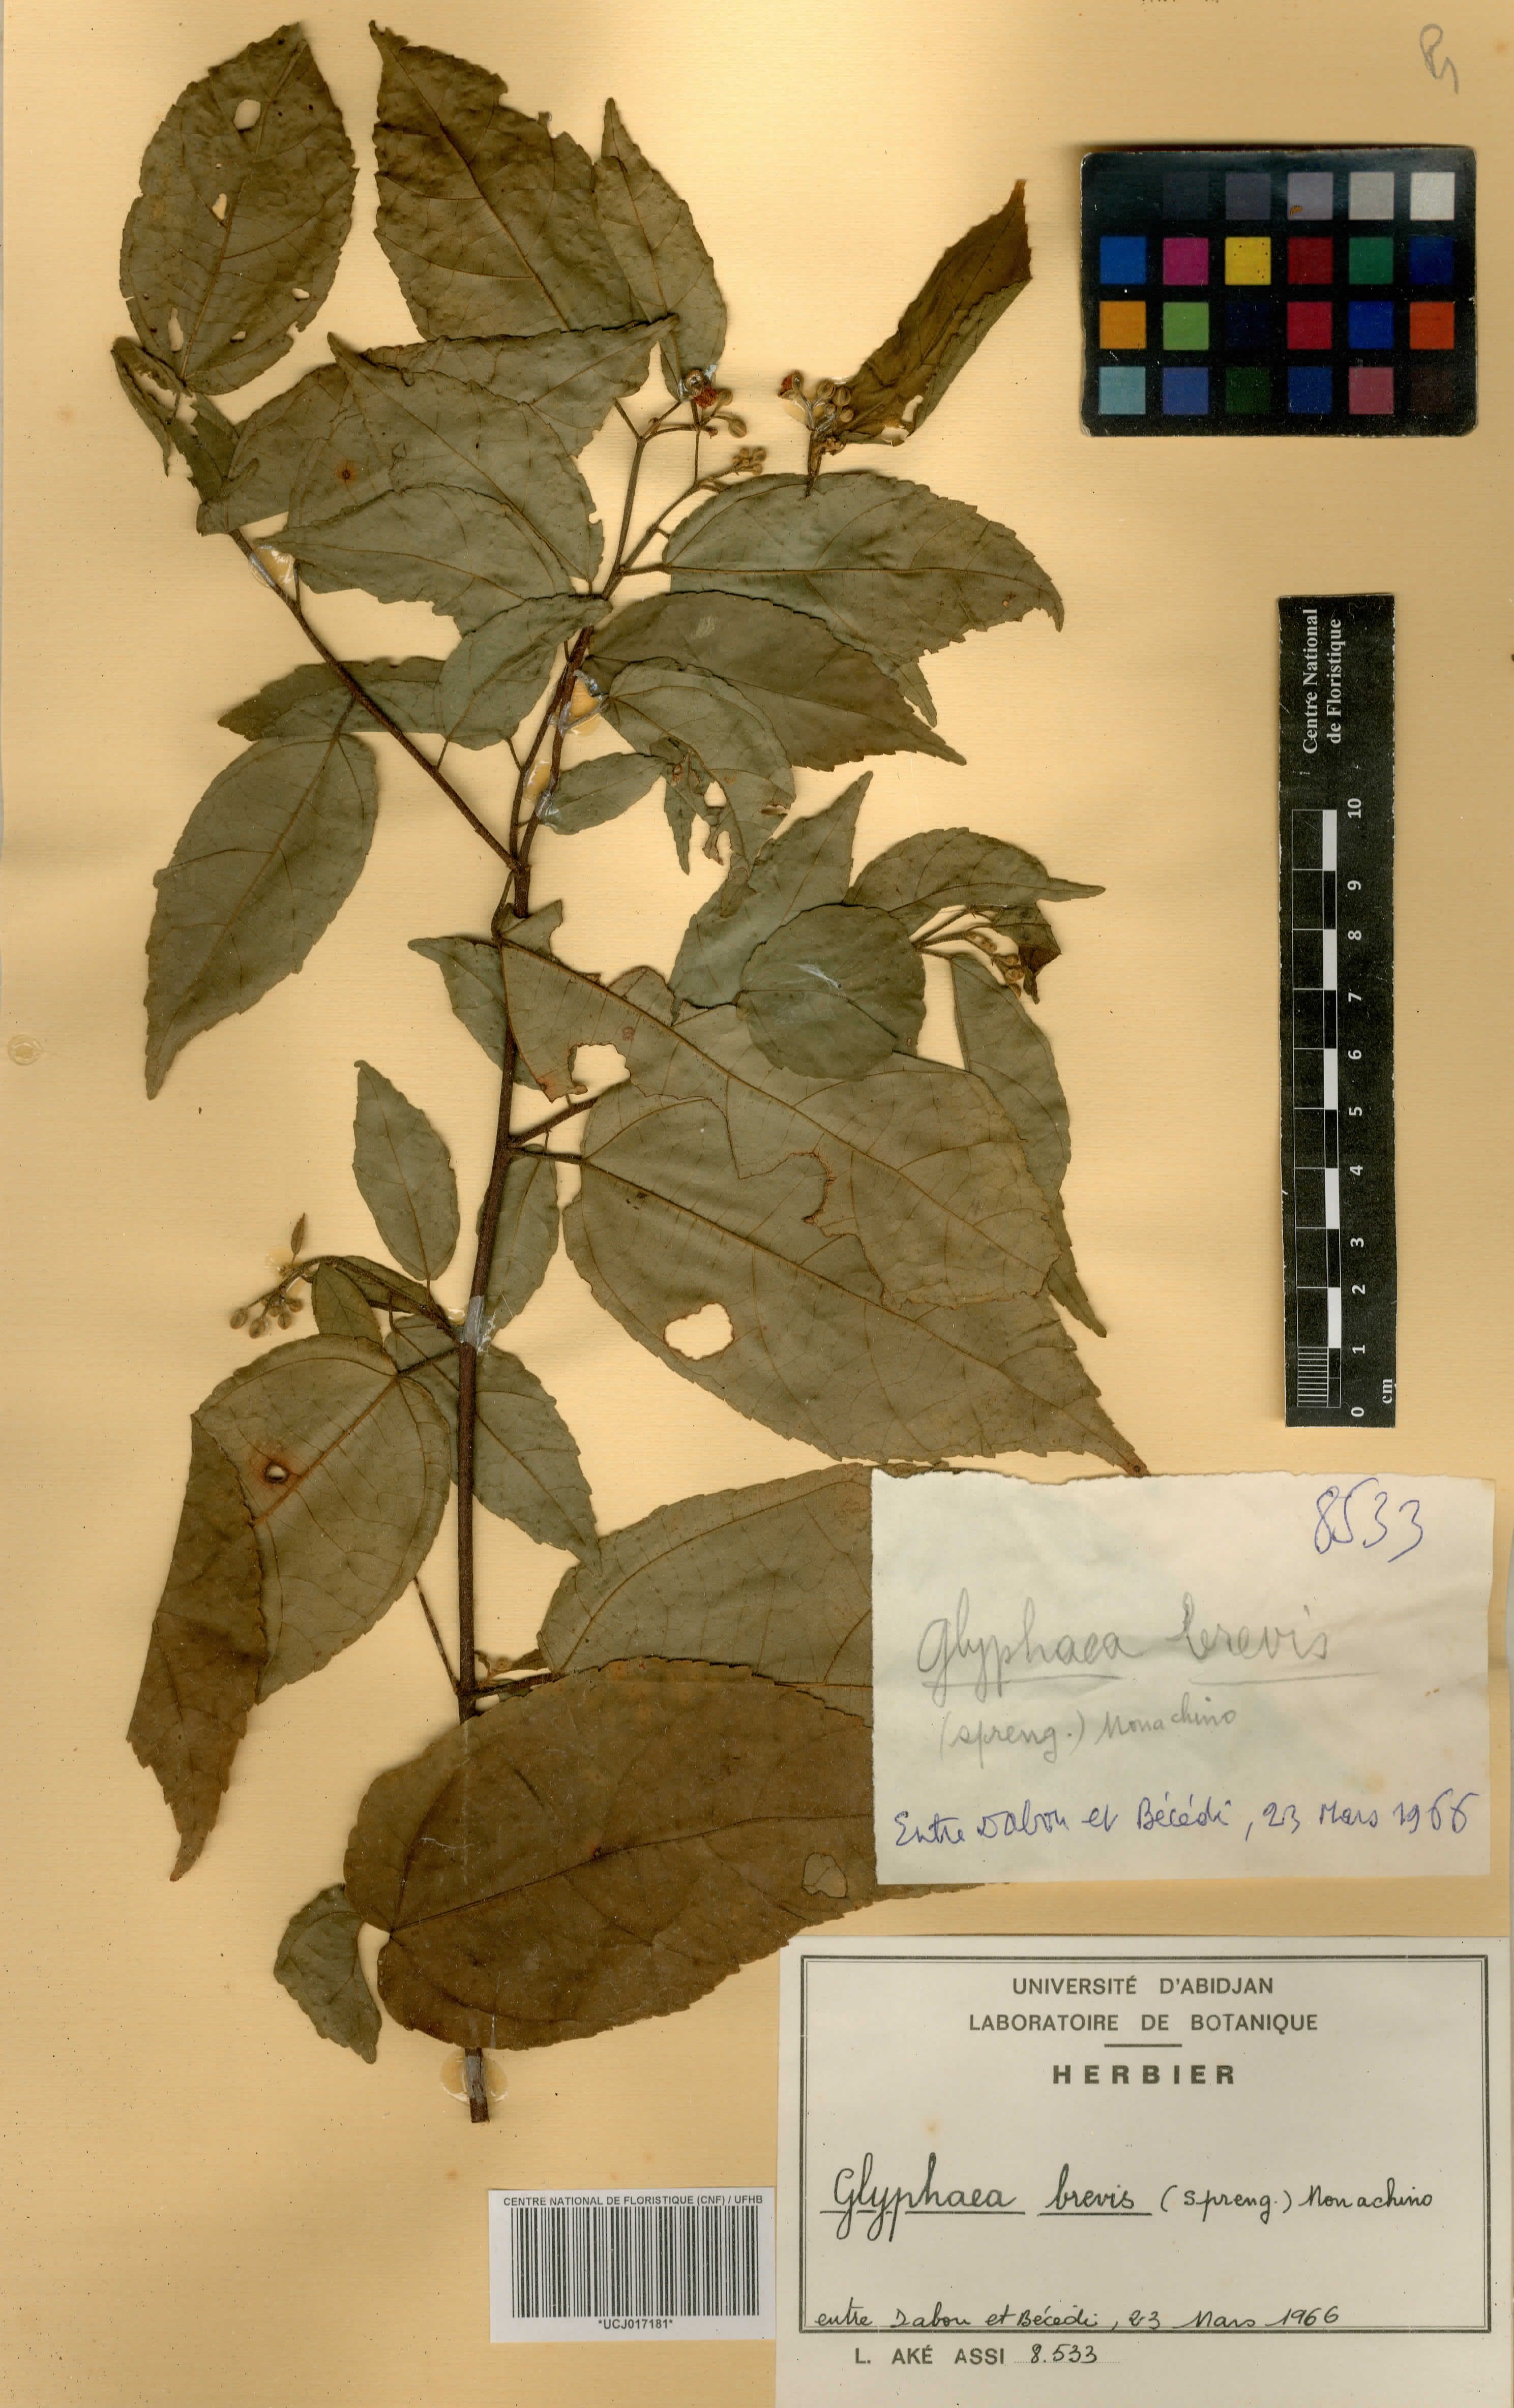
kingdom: Plantae
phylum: Tracheophyta
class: Magnoliopsida
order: Malvales
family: Malvaceae
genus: Glyphaea
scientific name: Glyphaea brevis
